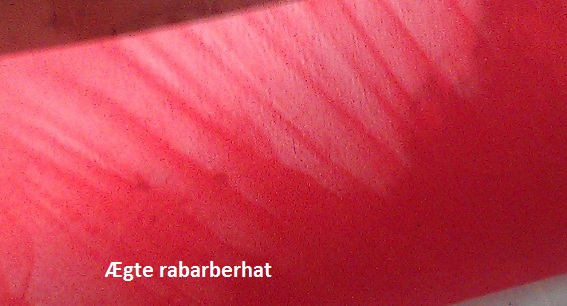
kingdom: Fungi
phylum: Basidiomycota
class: Agaricomycetes
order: Agaricales
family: Agaricaceae
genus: Chlorophyllum
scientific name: Chlorophyllum olivieri
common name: almindelig rabarberhat
